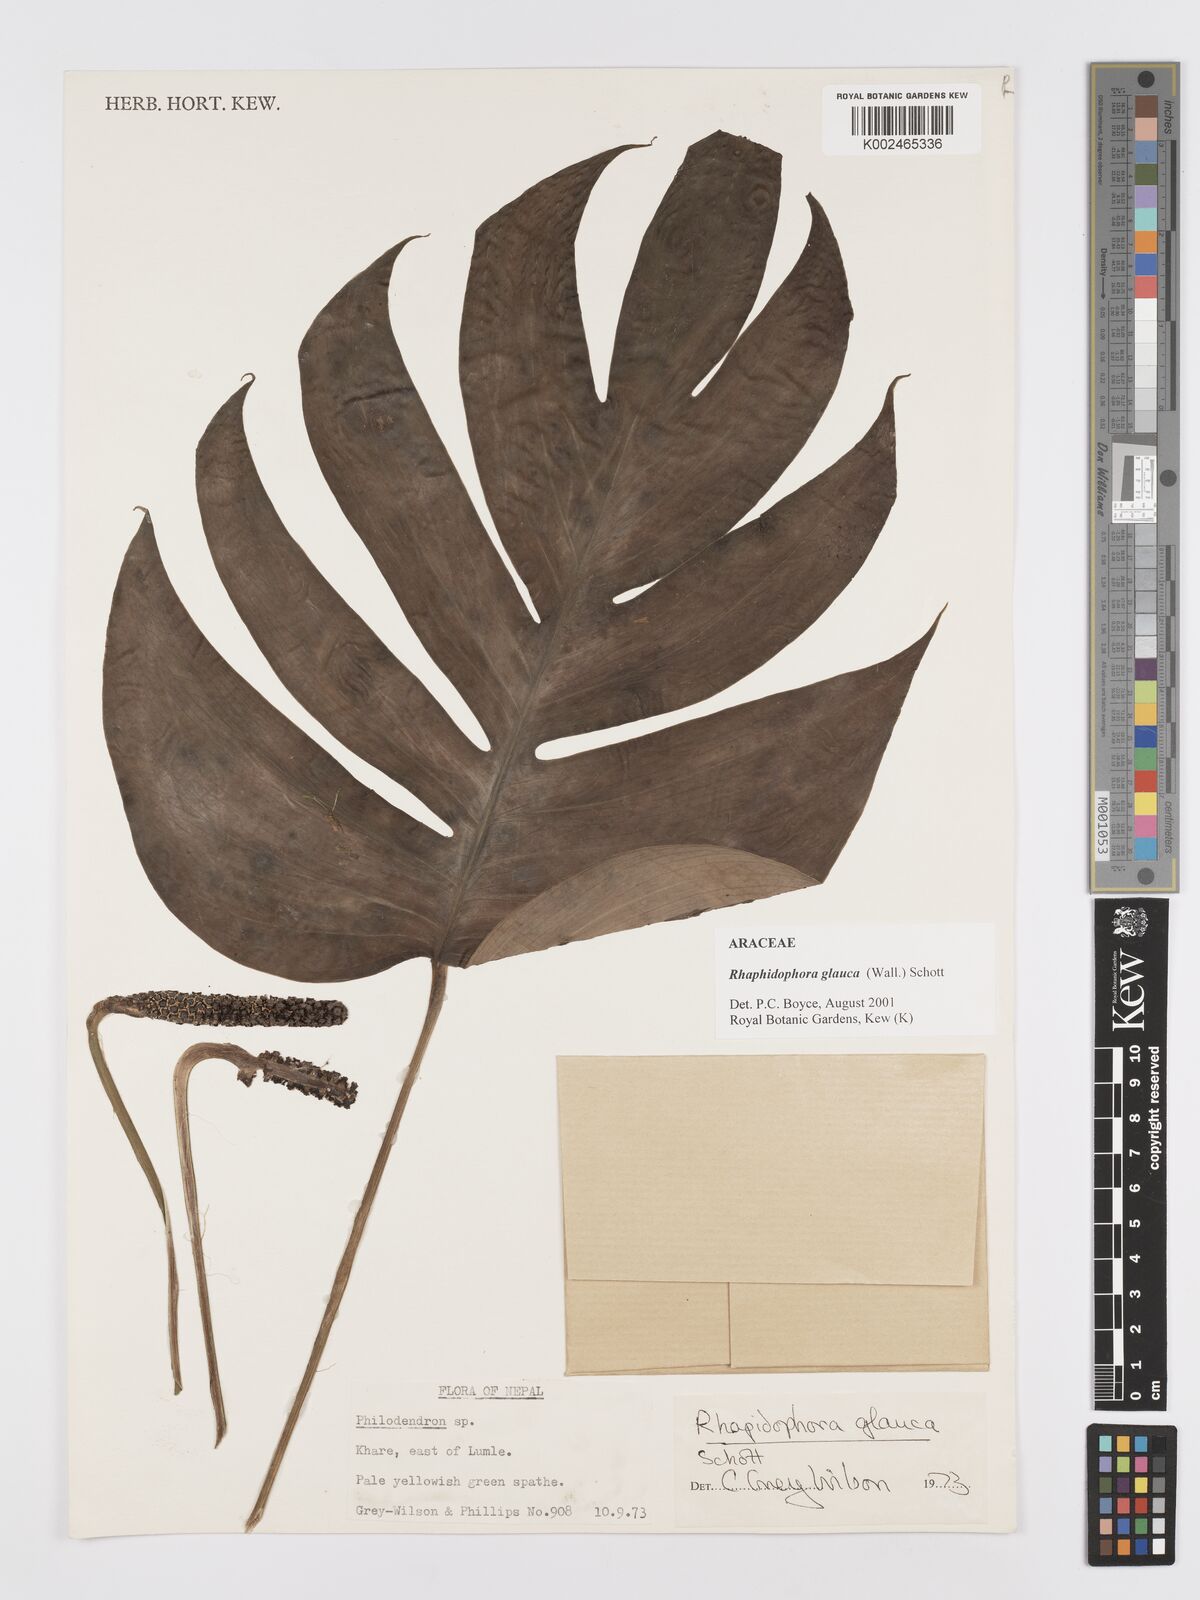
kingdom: Plantae
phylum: Tracheophyta
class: Liliopsida
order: Alismatales
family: Araceae
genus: Rhaphidophora
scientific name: Rhaphidophora glauca
